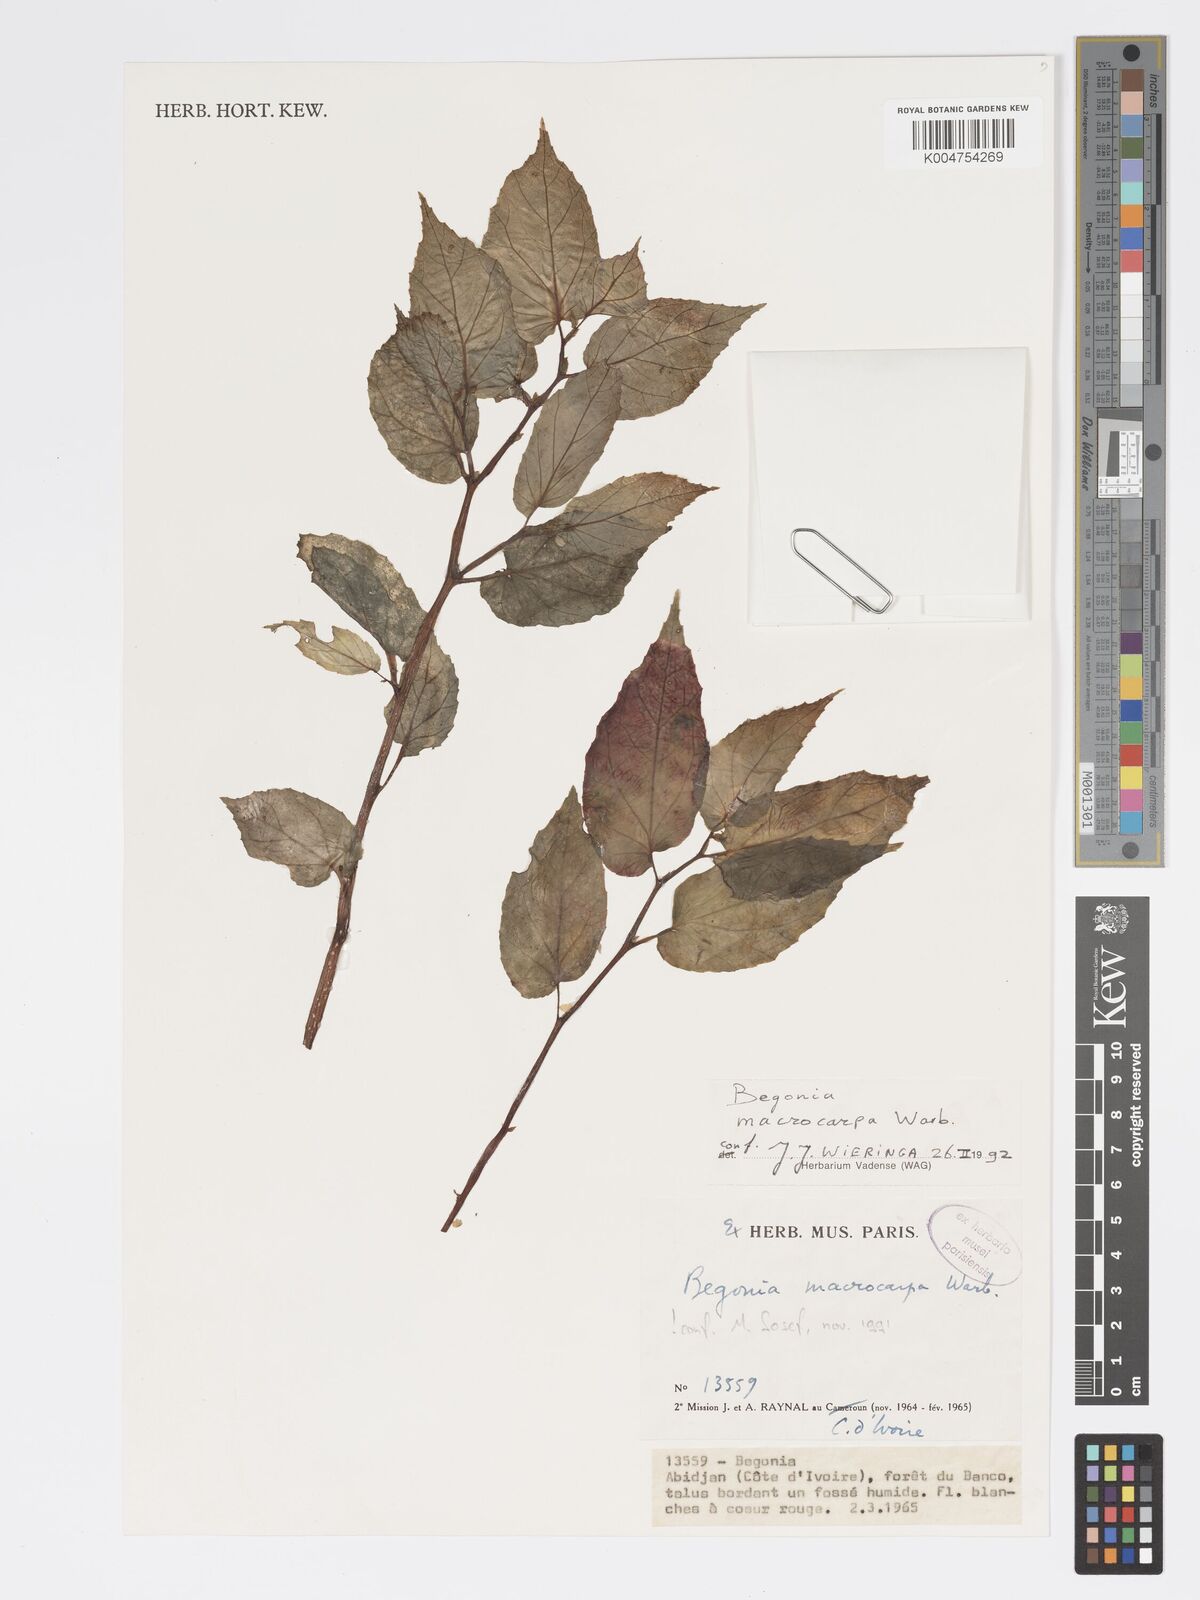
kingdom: Plantae
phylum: Tracheophyta
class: Magnoliopsida
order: Cucurbitales
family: Begoniaceae
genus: Begonia
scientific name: Begonia macrocarpa
